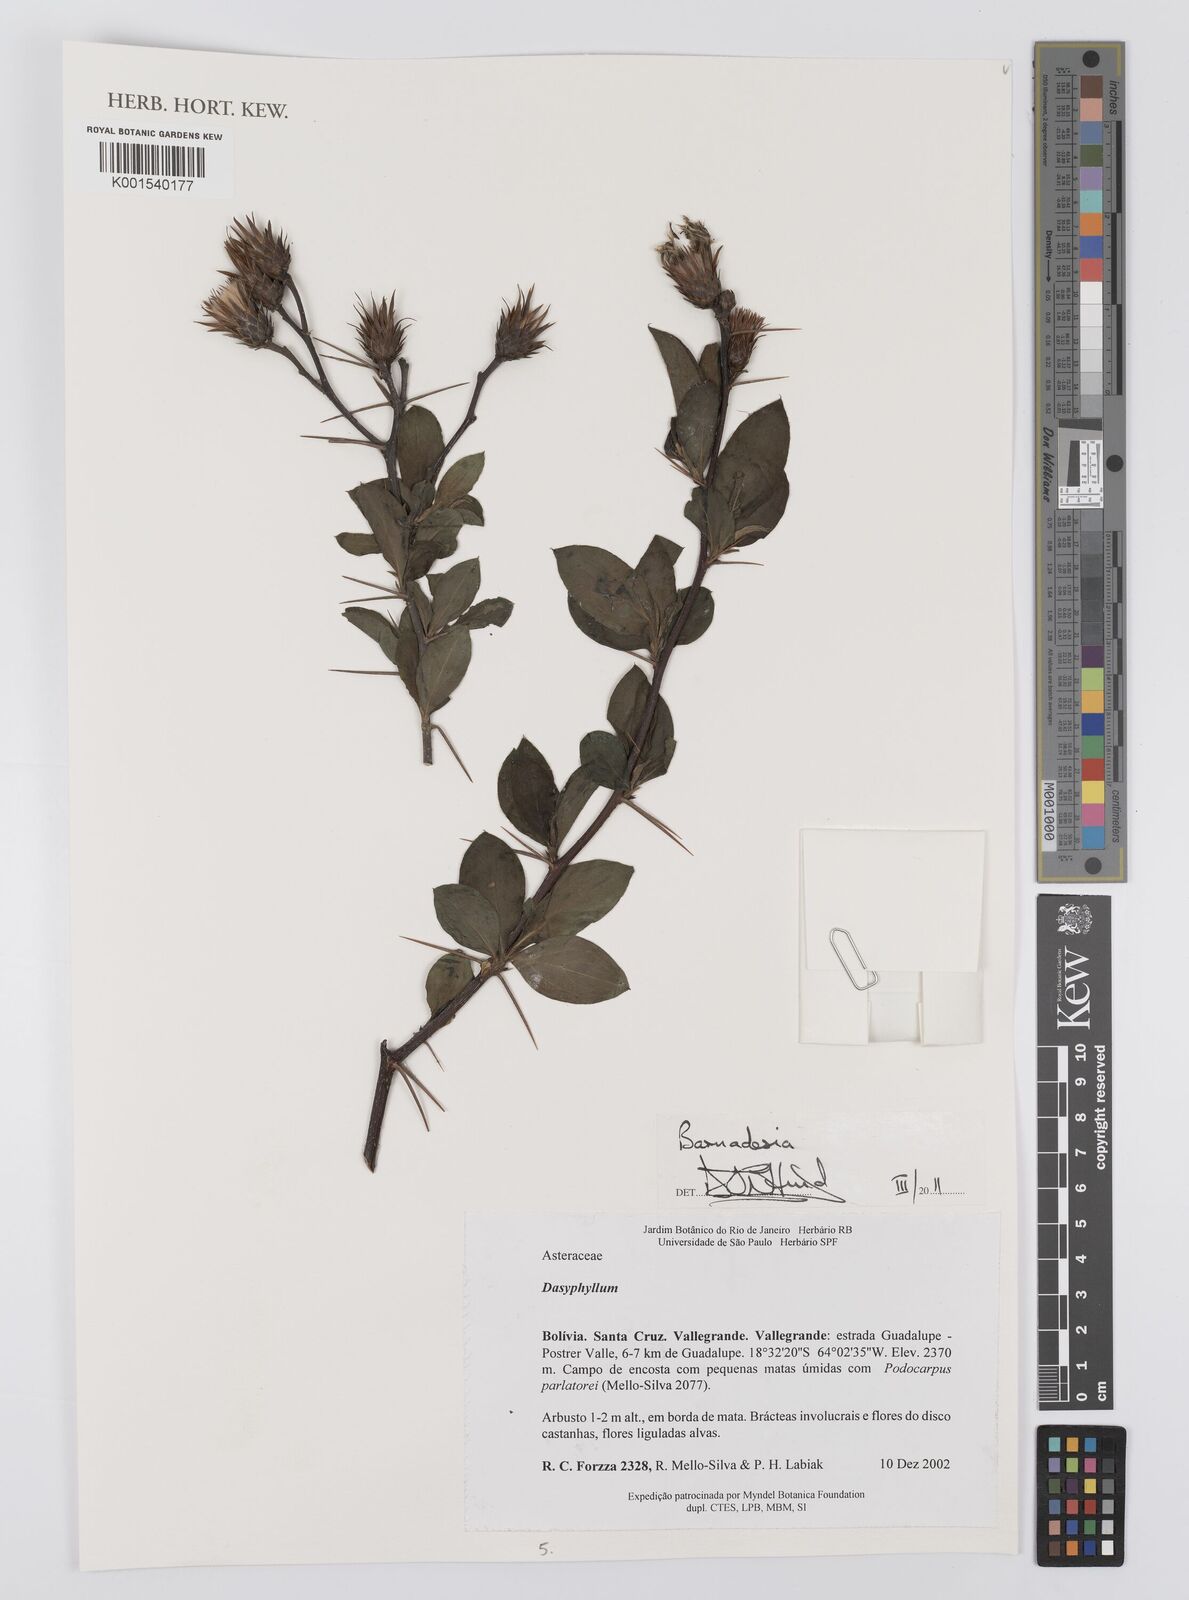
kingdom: Plantae
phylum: Tracheophyta
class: Magnoliopsida
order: Asterales
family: Asteraceae
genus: Barnadesia
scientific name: Barnadesia
